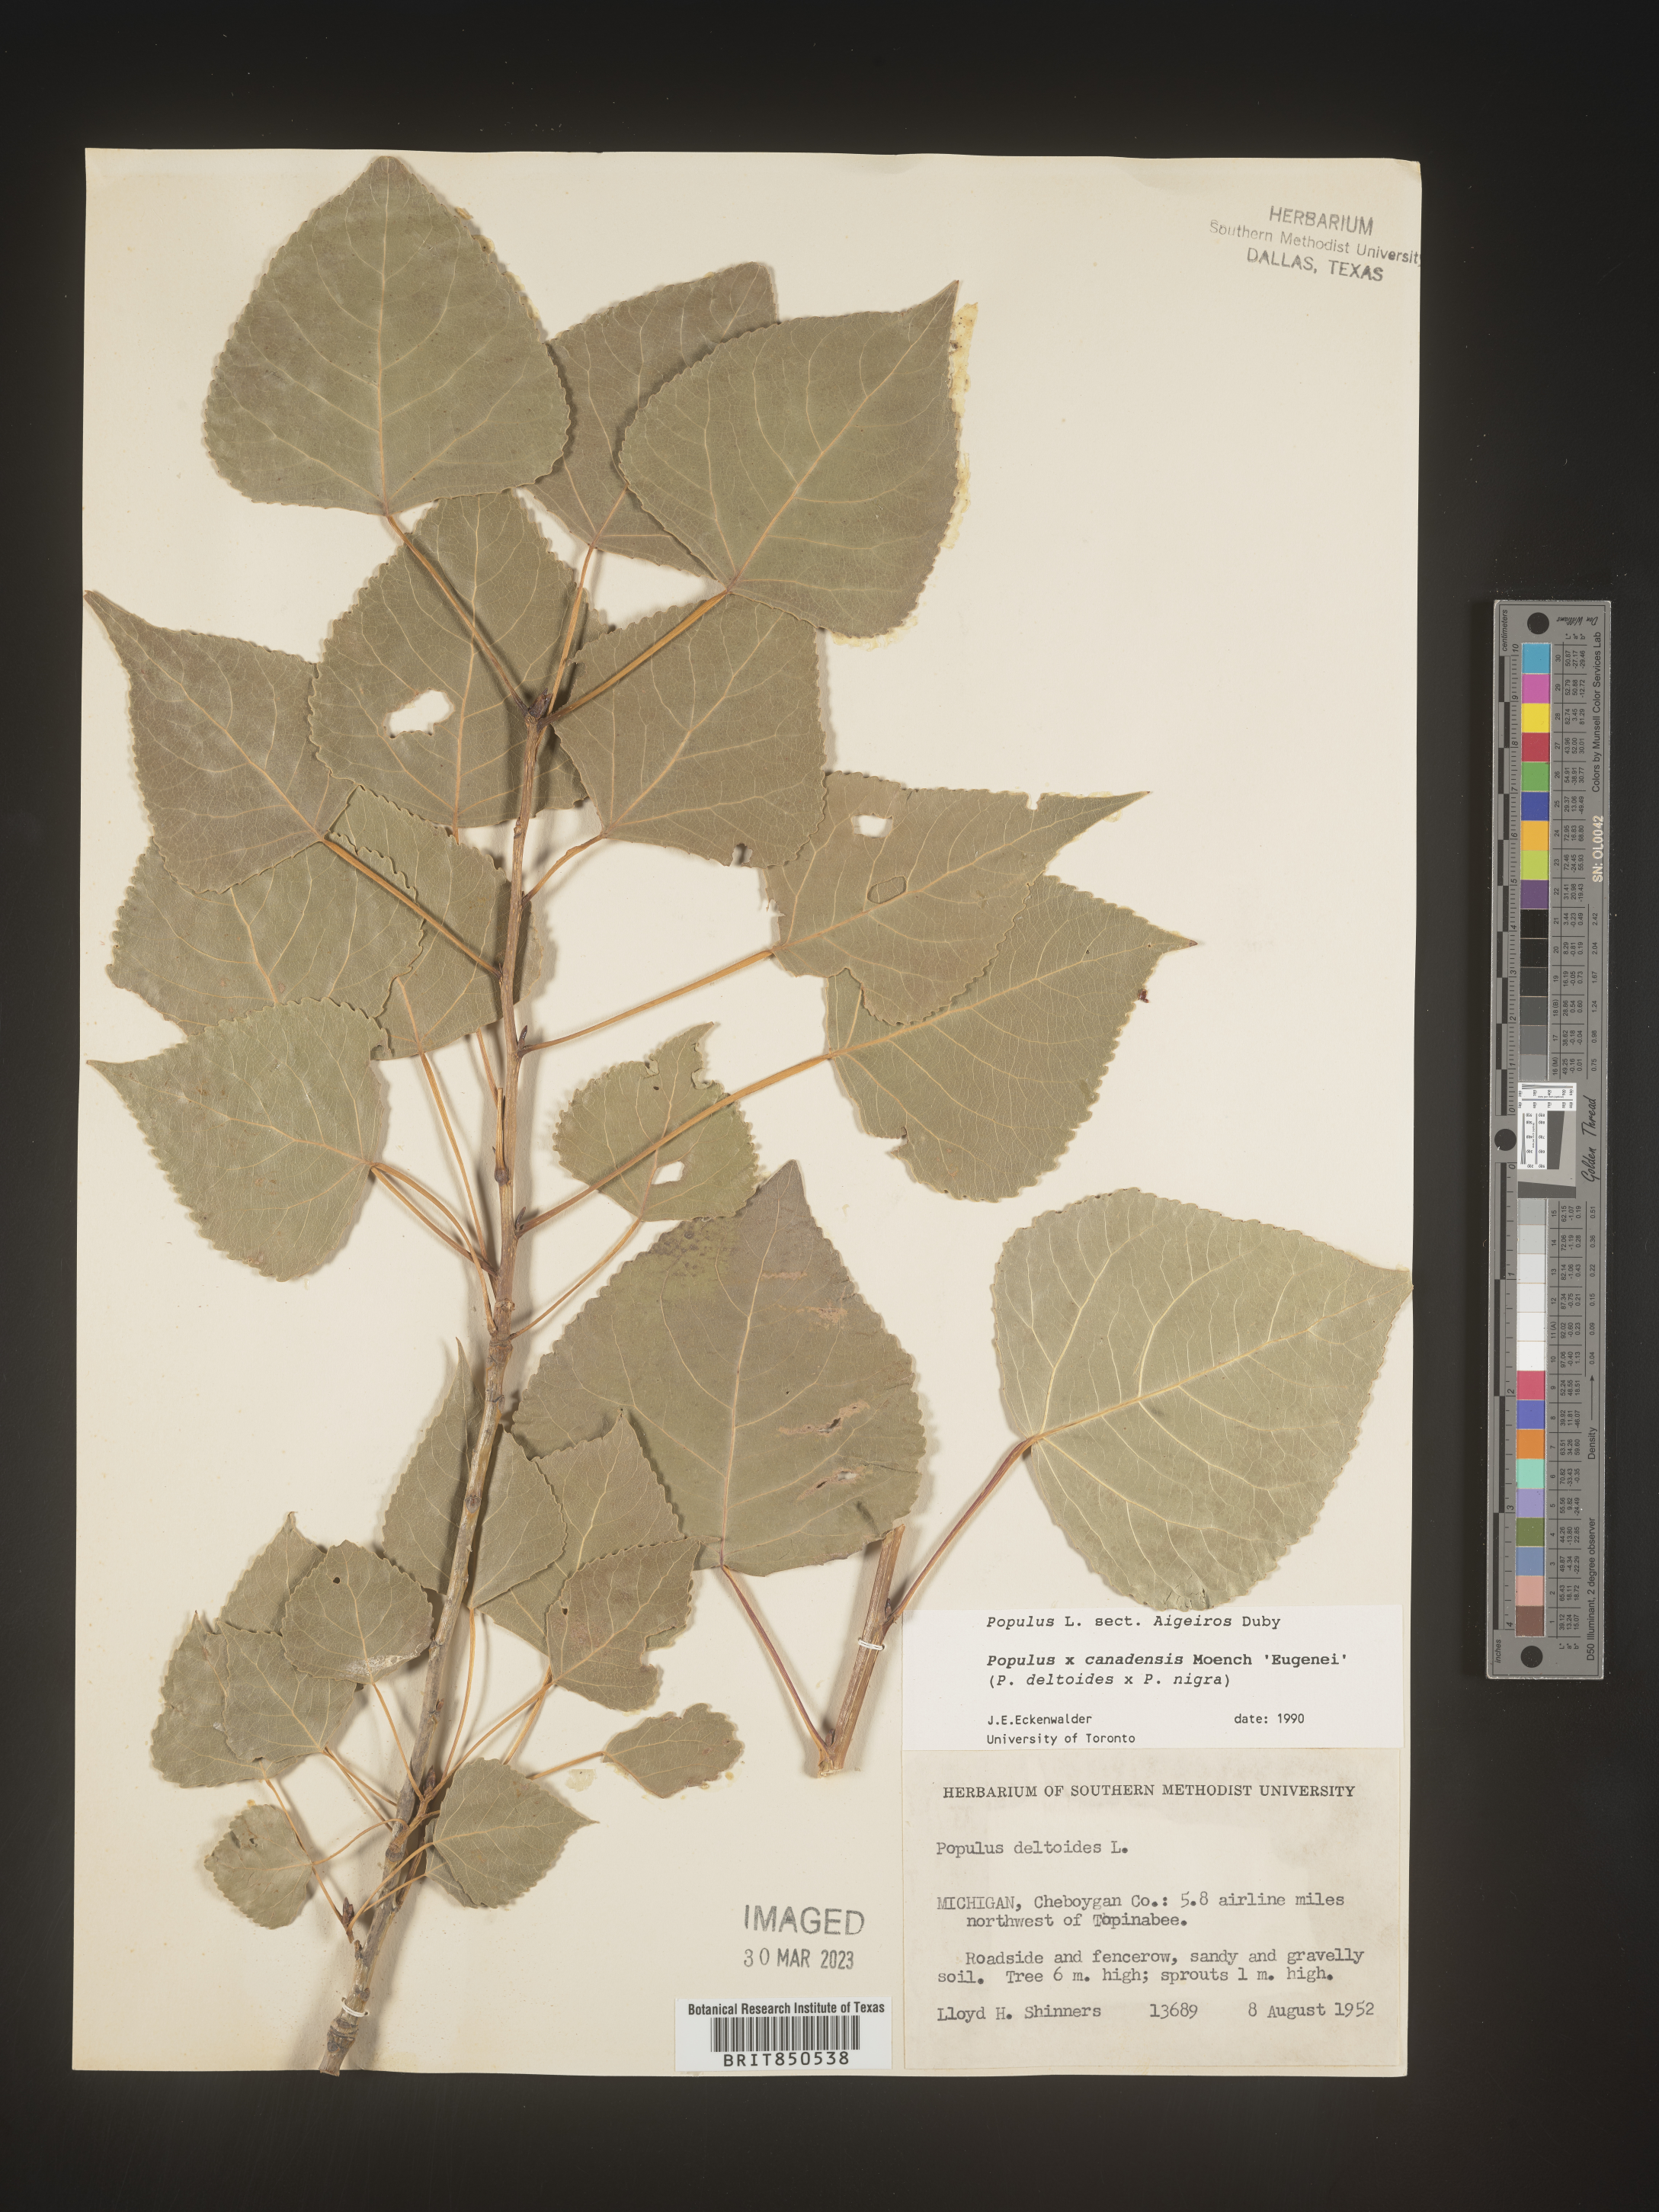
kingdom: Plantae
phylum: Tracheophyta
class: Magnoliopsida
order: Malpighiales
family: Salicaceae
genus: Populus
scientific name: Populus
